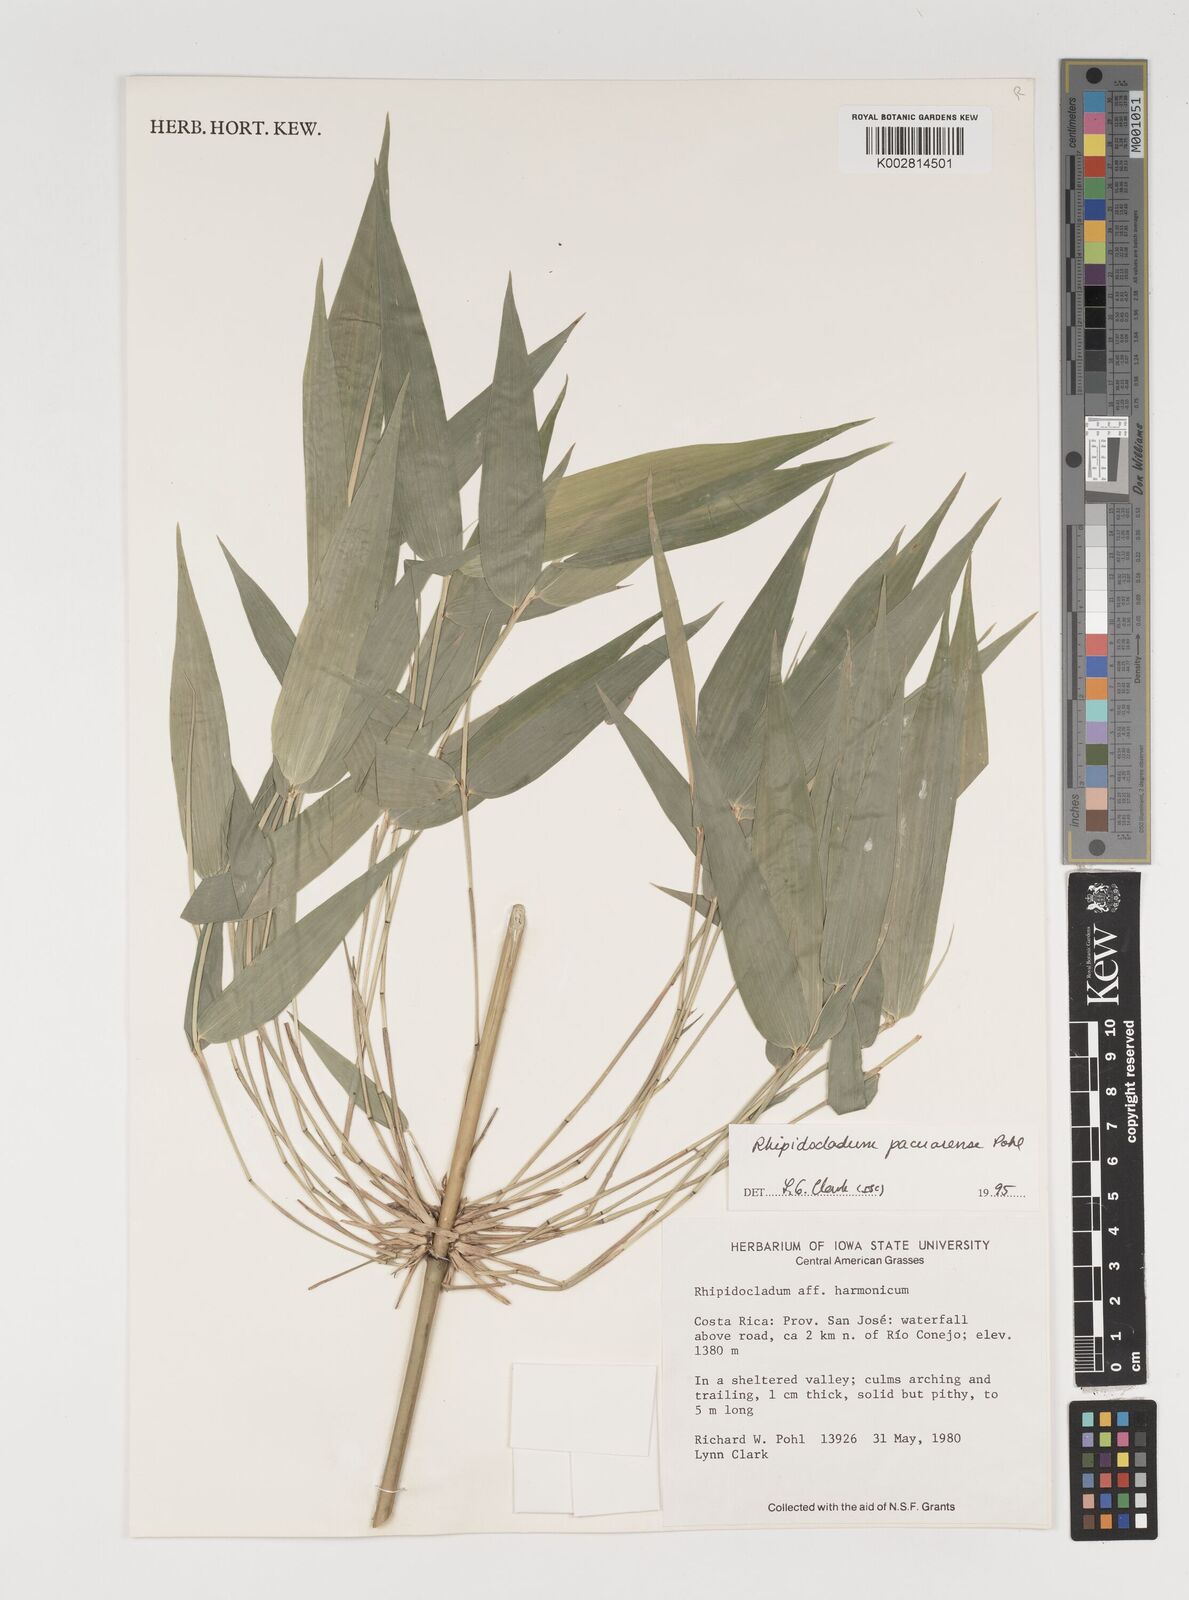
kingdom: Plantae
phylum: Tracheophyta
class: Liliopsida
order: Poales
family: Poaceae
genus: Rhipidocladum
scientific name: Rhipidocladum pacuarense
